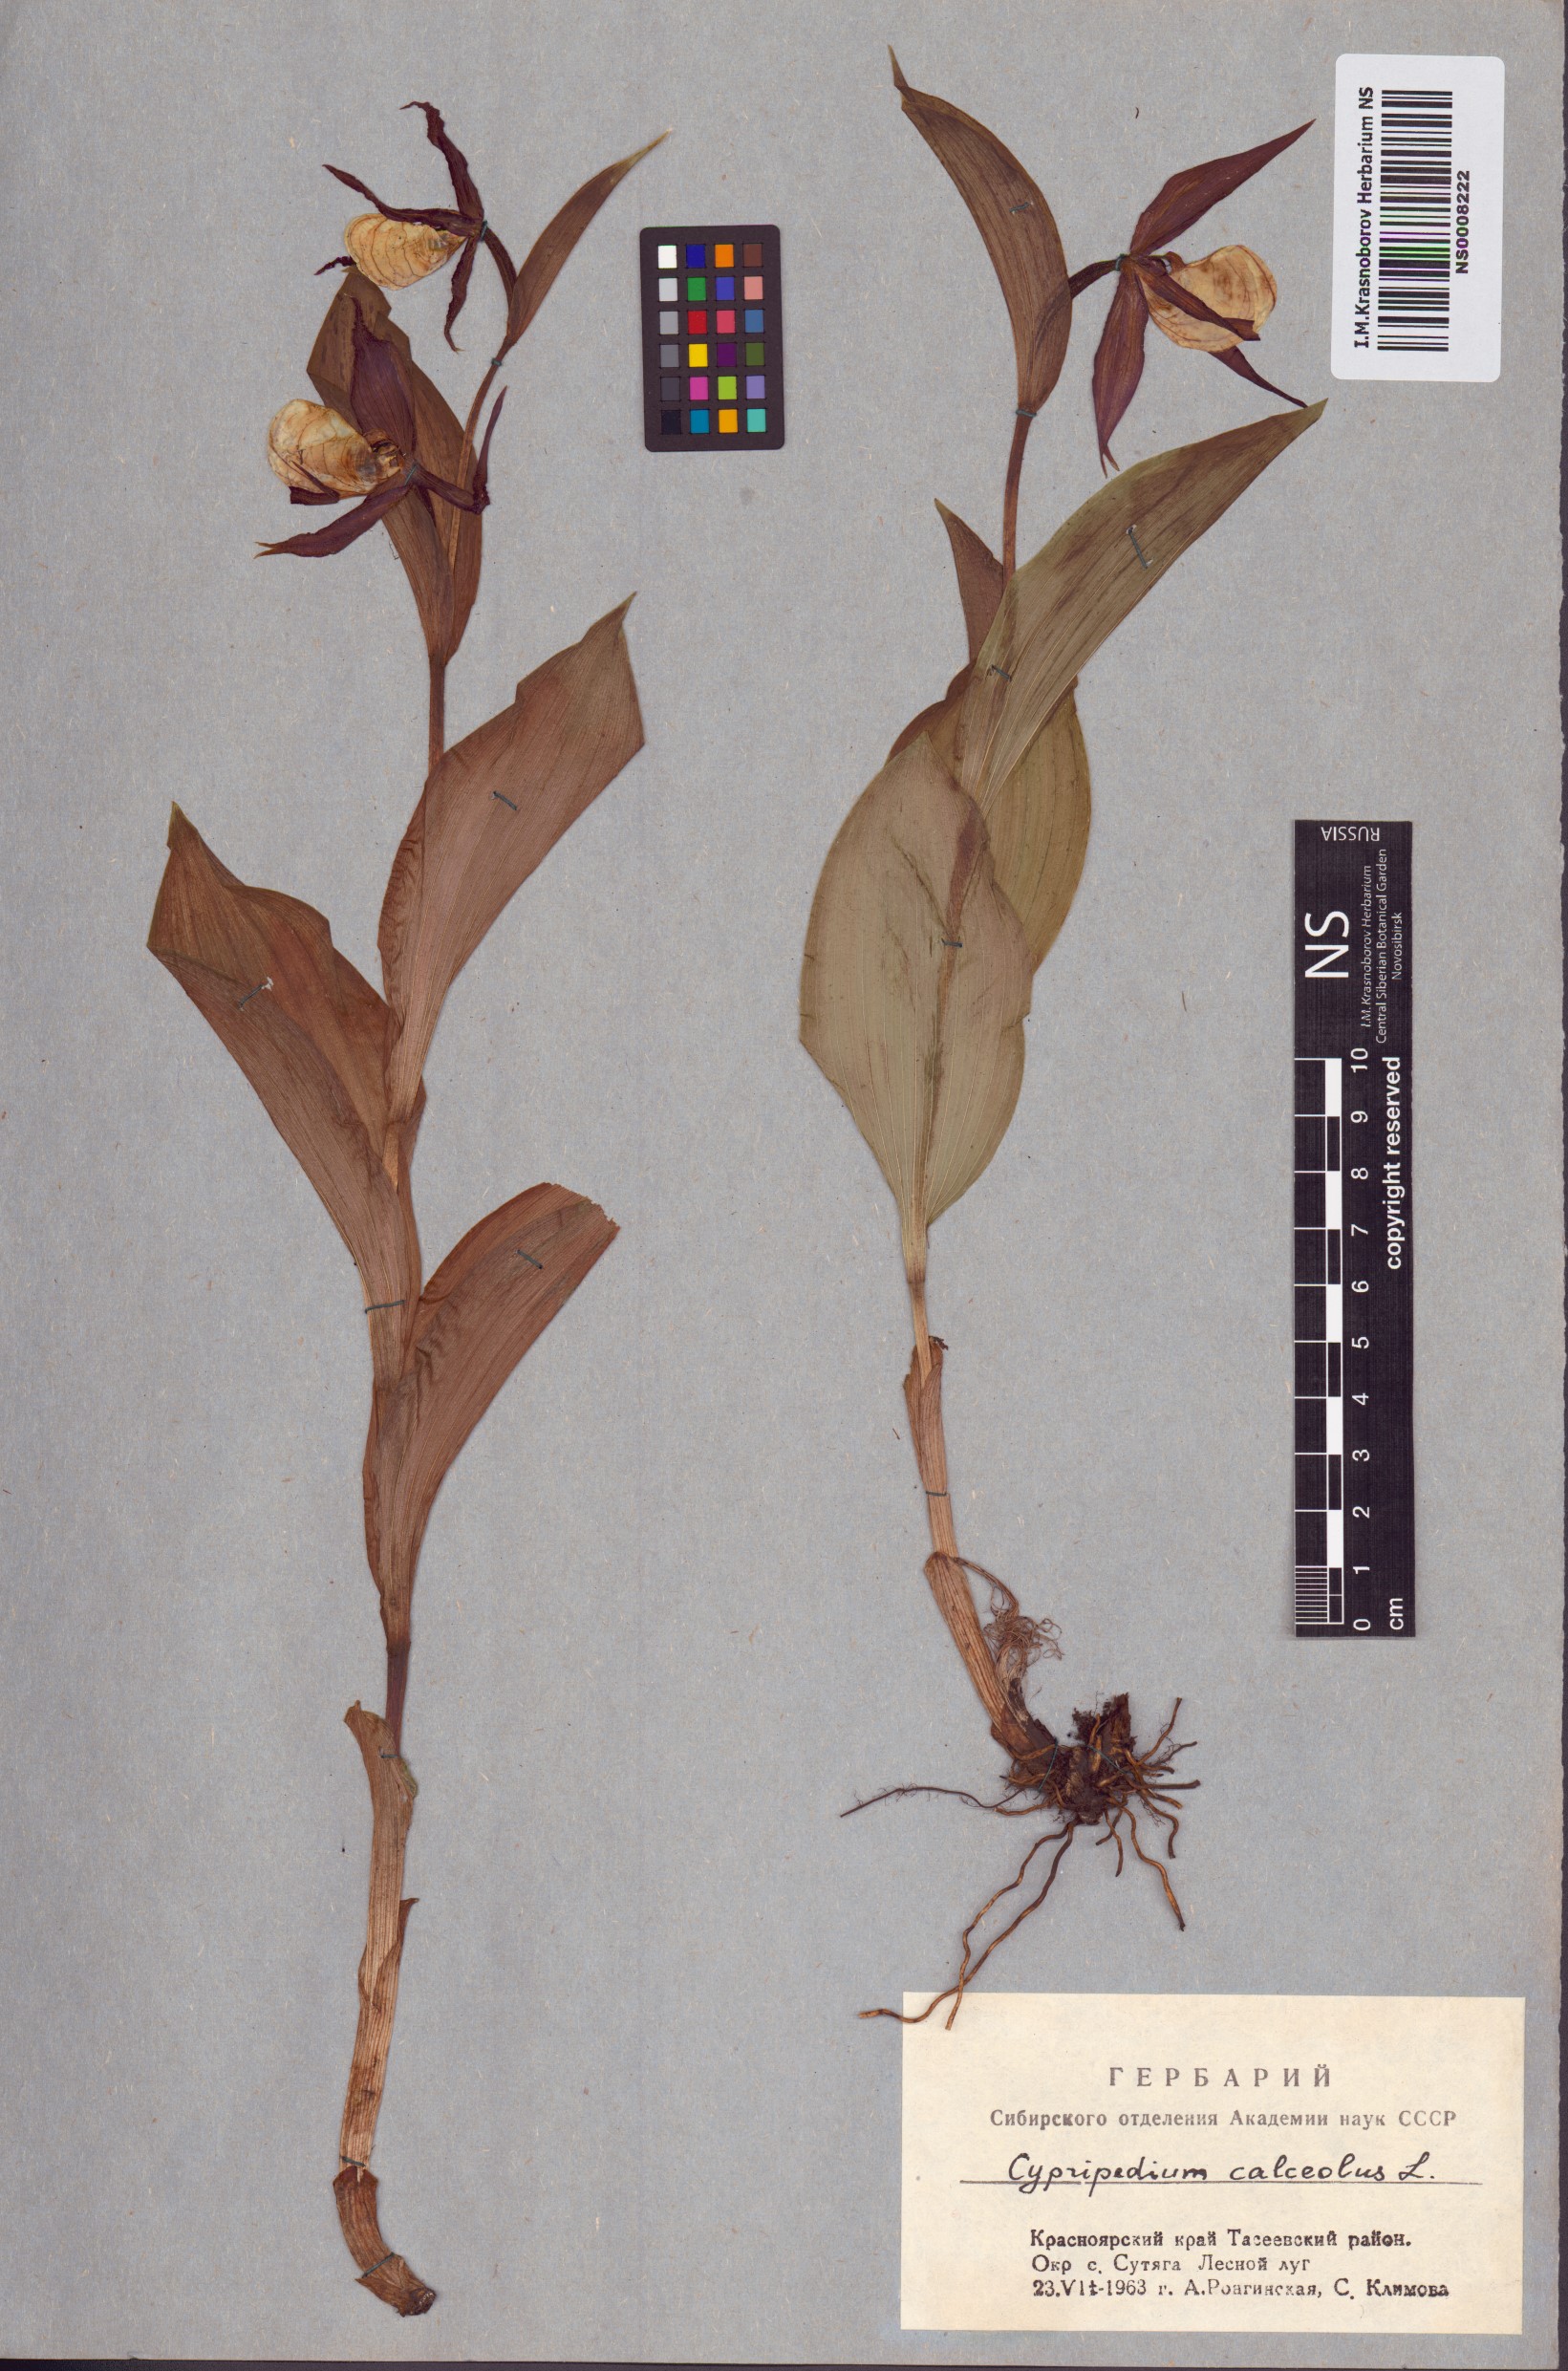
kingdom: Plantae
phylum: Tracheophyta
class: Liliopsida
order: Asparagales
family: Orchidaceae
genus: Cypripedium
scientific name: Cypripedium calceolus
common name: Lady's-slipper
